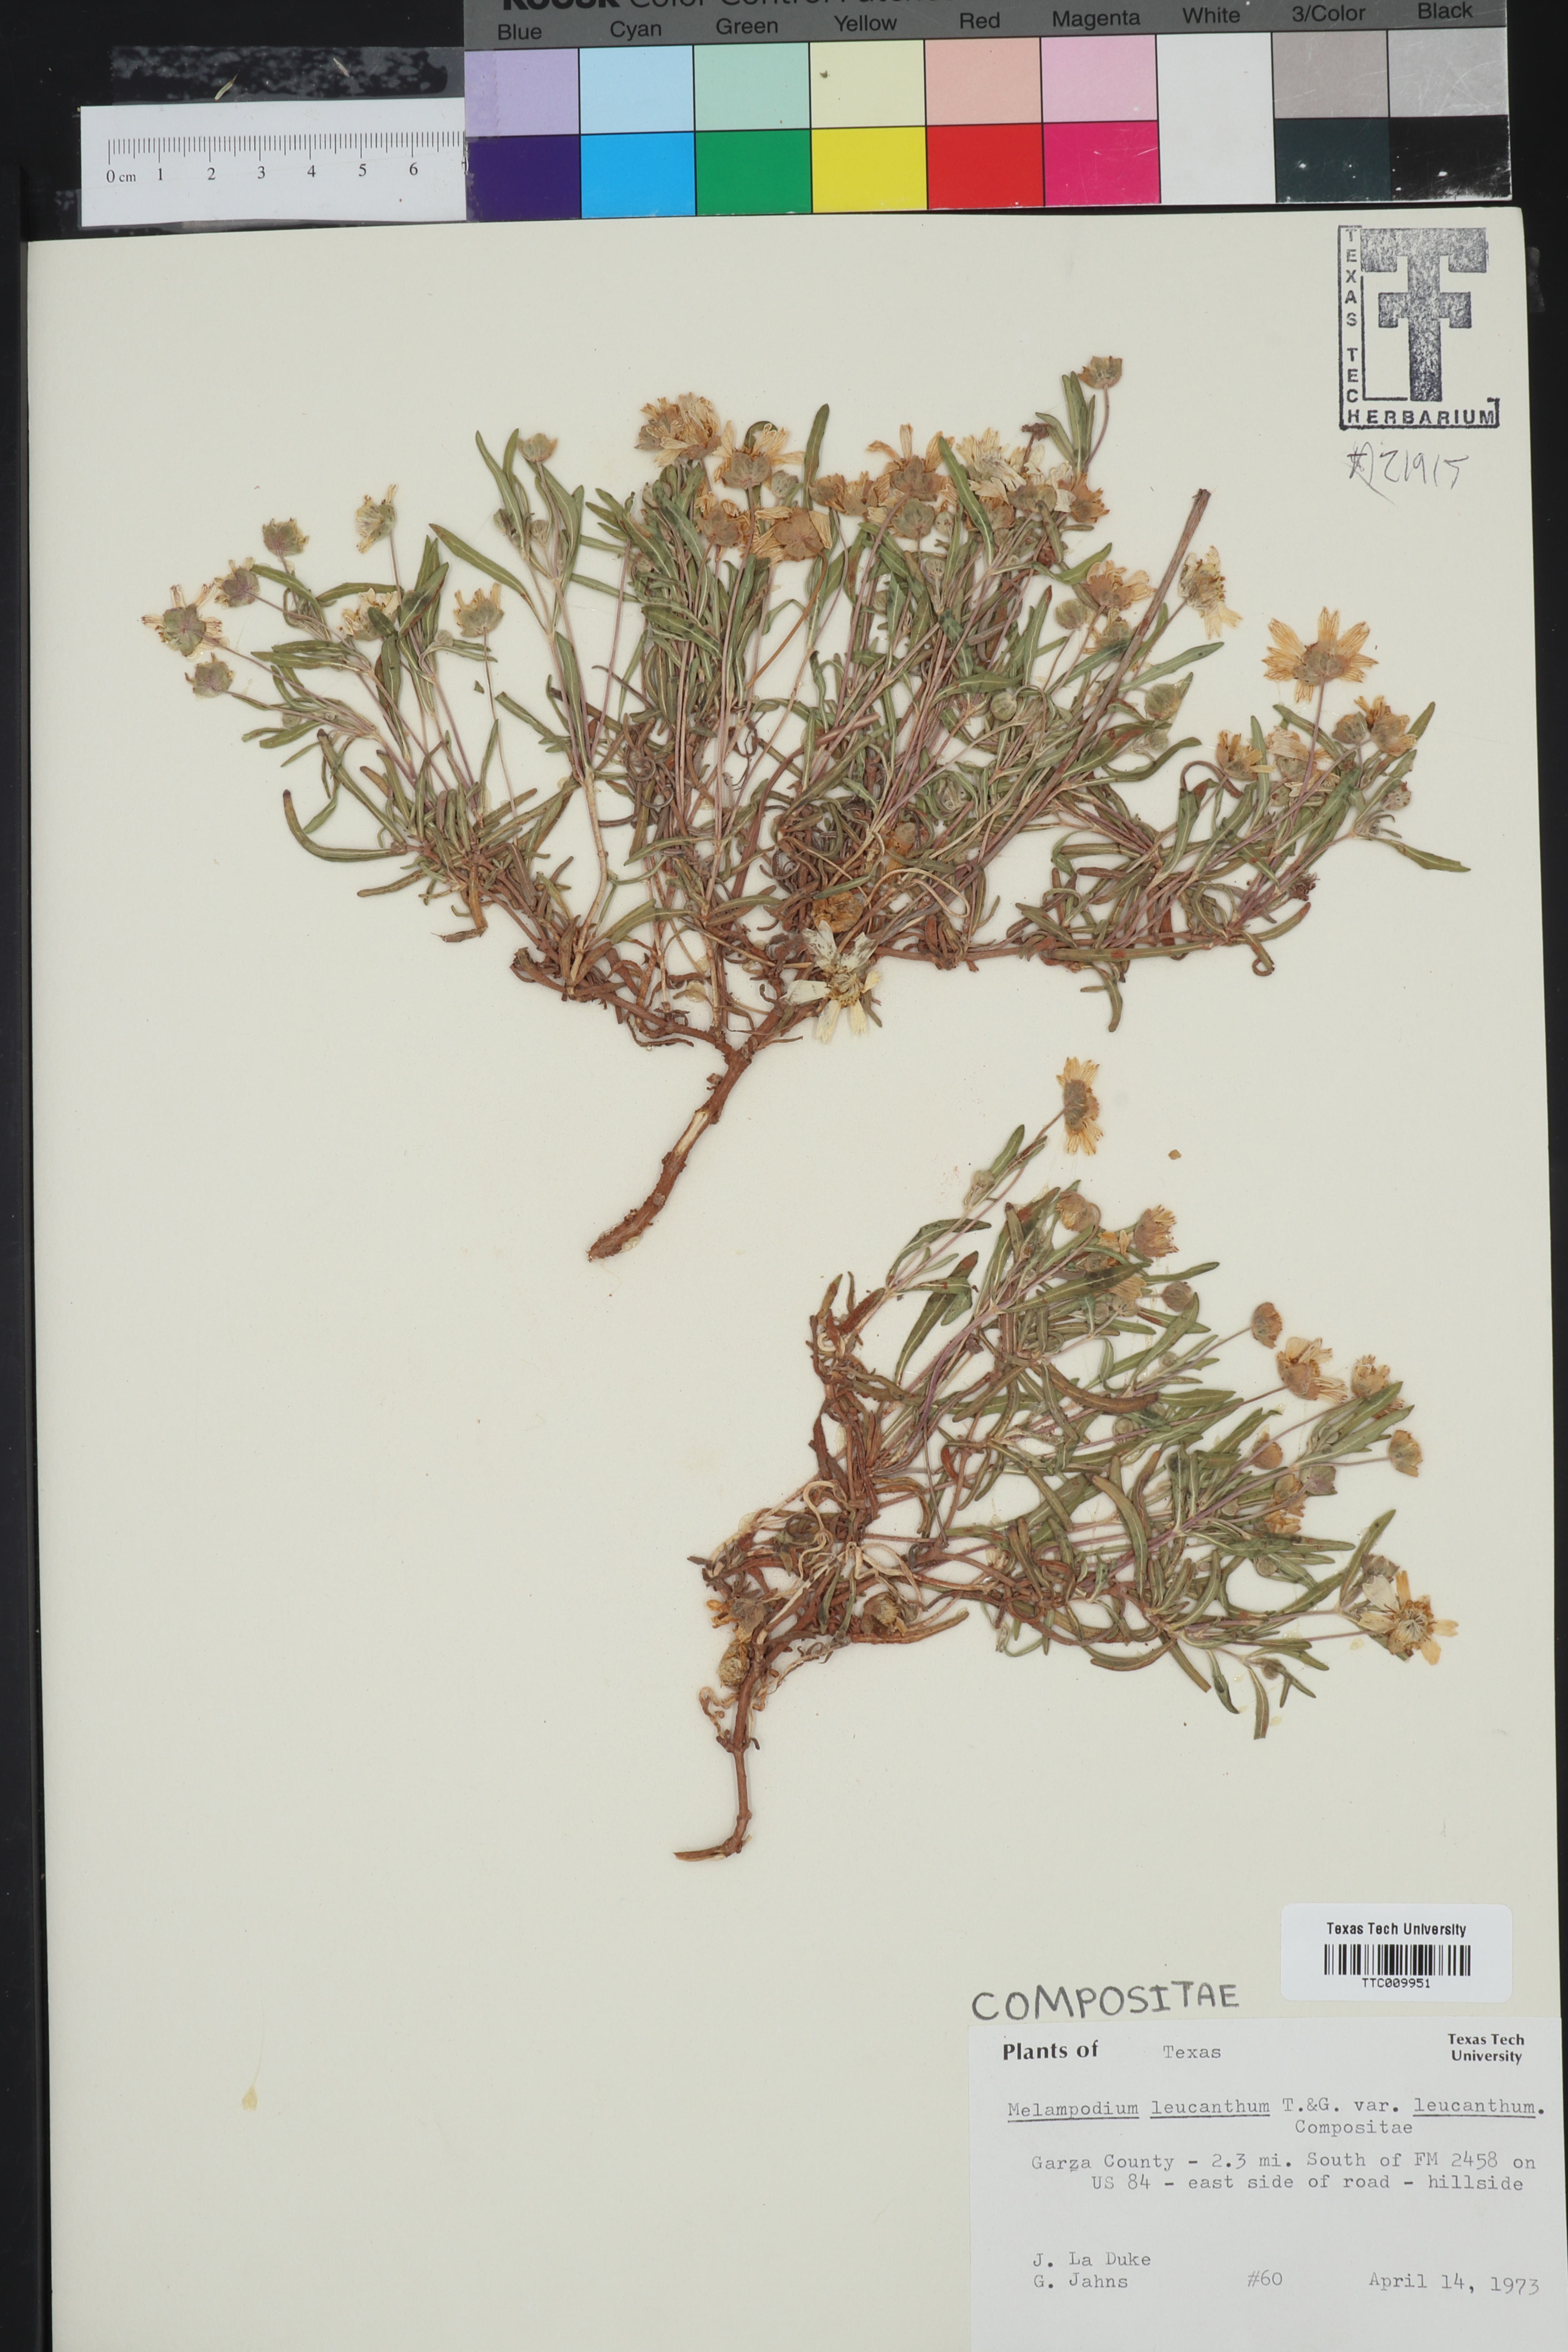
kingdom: Plantae
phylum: Tracheophyta
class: Magnoliopsida
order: Asterales
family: Asteraceae
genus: Melampodium
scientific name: Melampodium leucanthum
